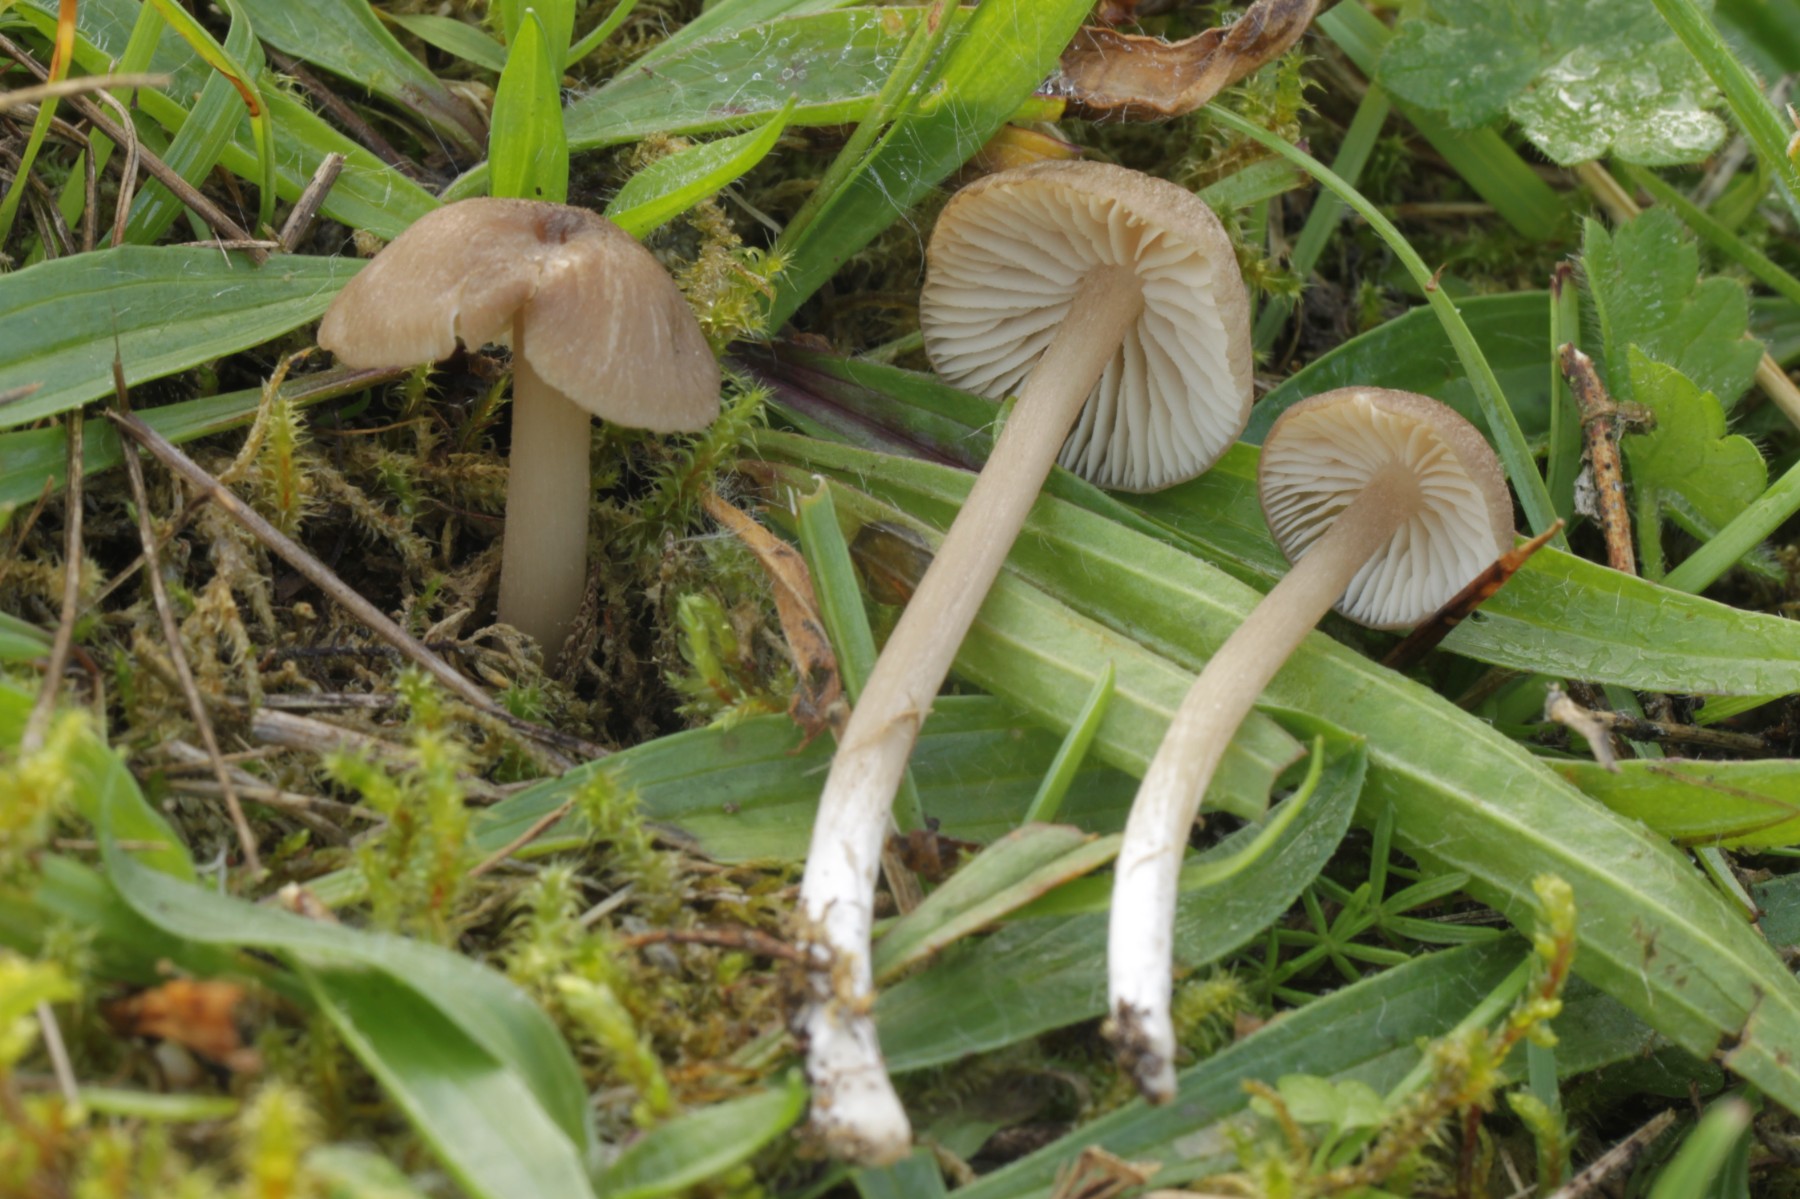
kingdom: Fungi
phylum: Basidiomycota
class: Agaricomycetes
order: Agaricales
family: Entolomataceae
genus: Entoloma
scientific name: Entoloma pseudoturci
